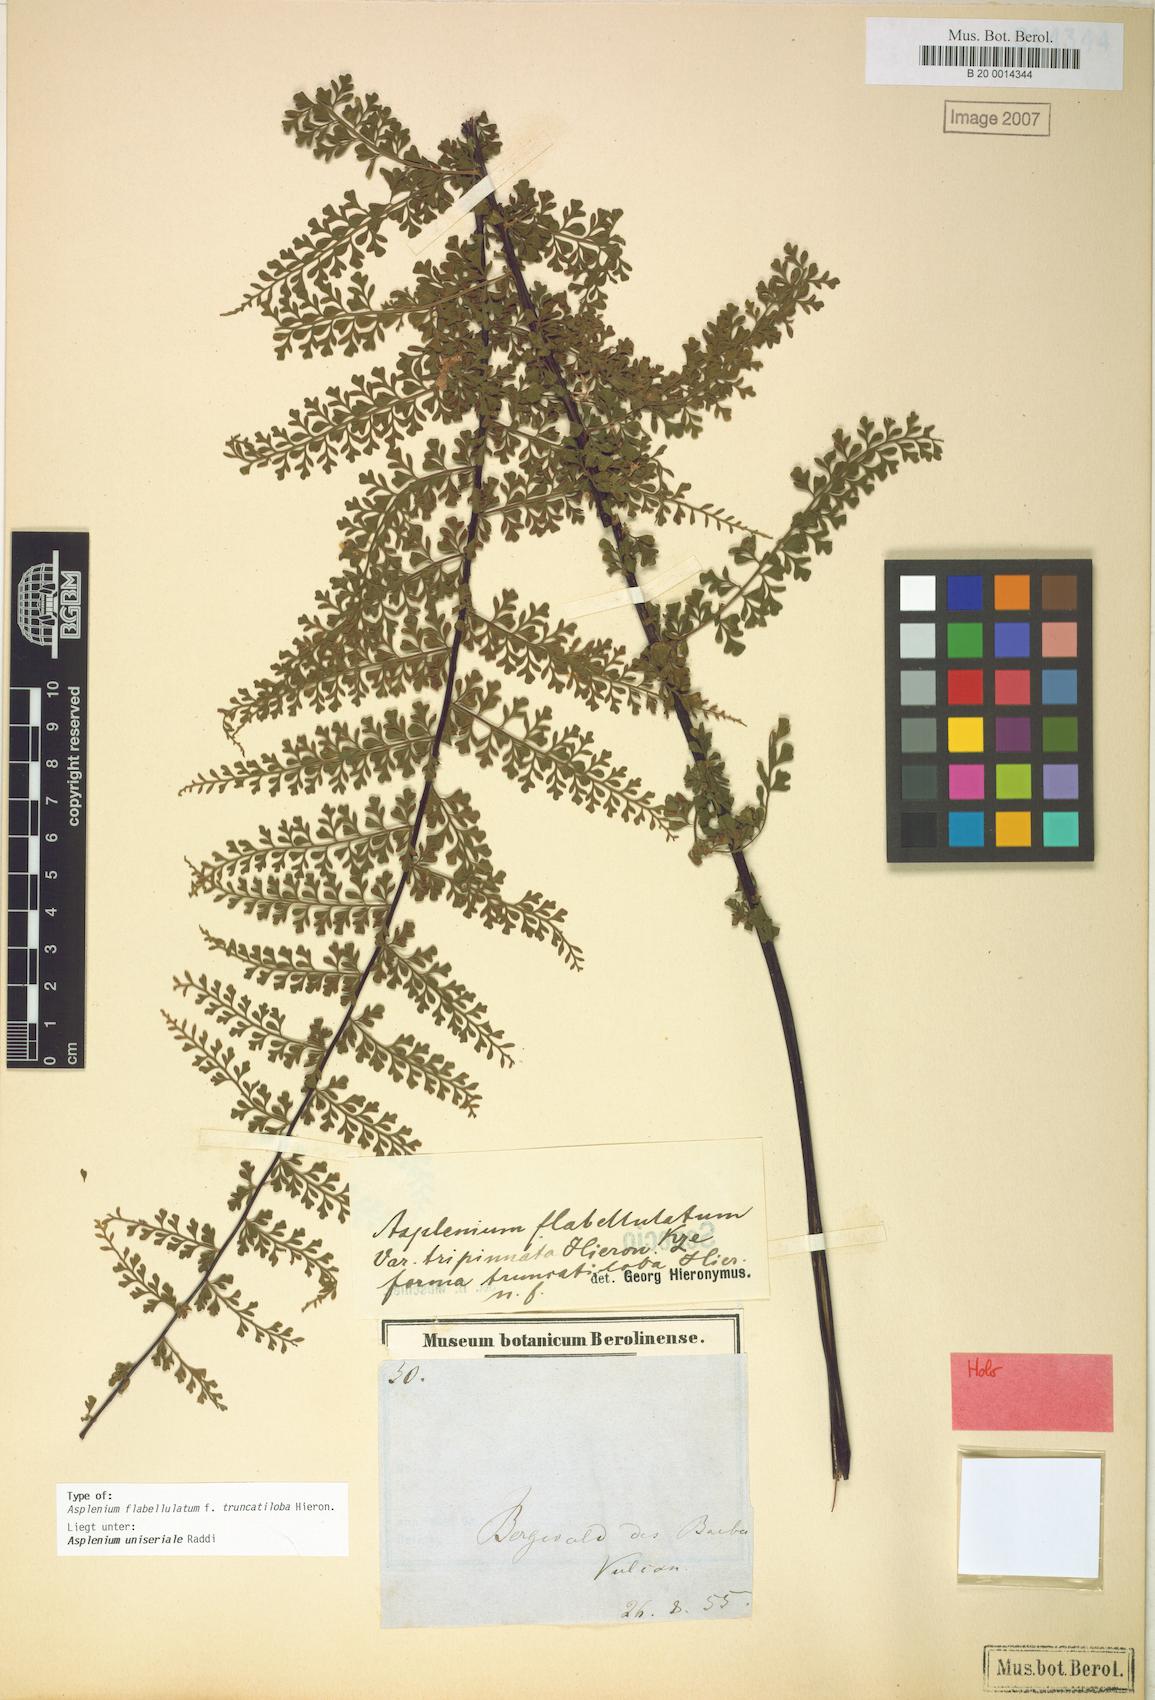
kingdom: Plantae
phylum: Tracheophyta
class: Polypodiopsida
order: Polypodiales
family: Aspleniaceae
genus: Asplenium
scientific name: Asplenium radicans
